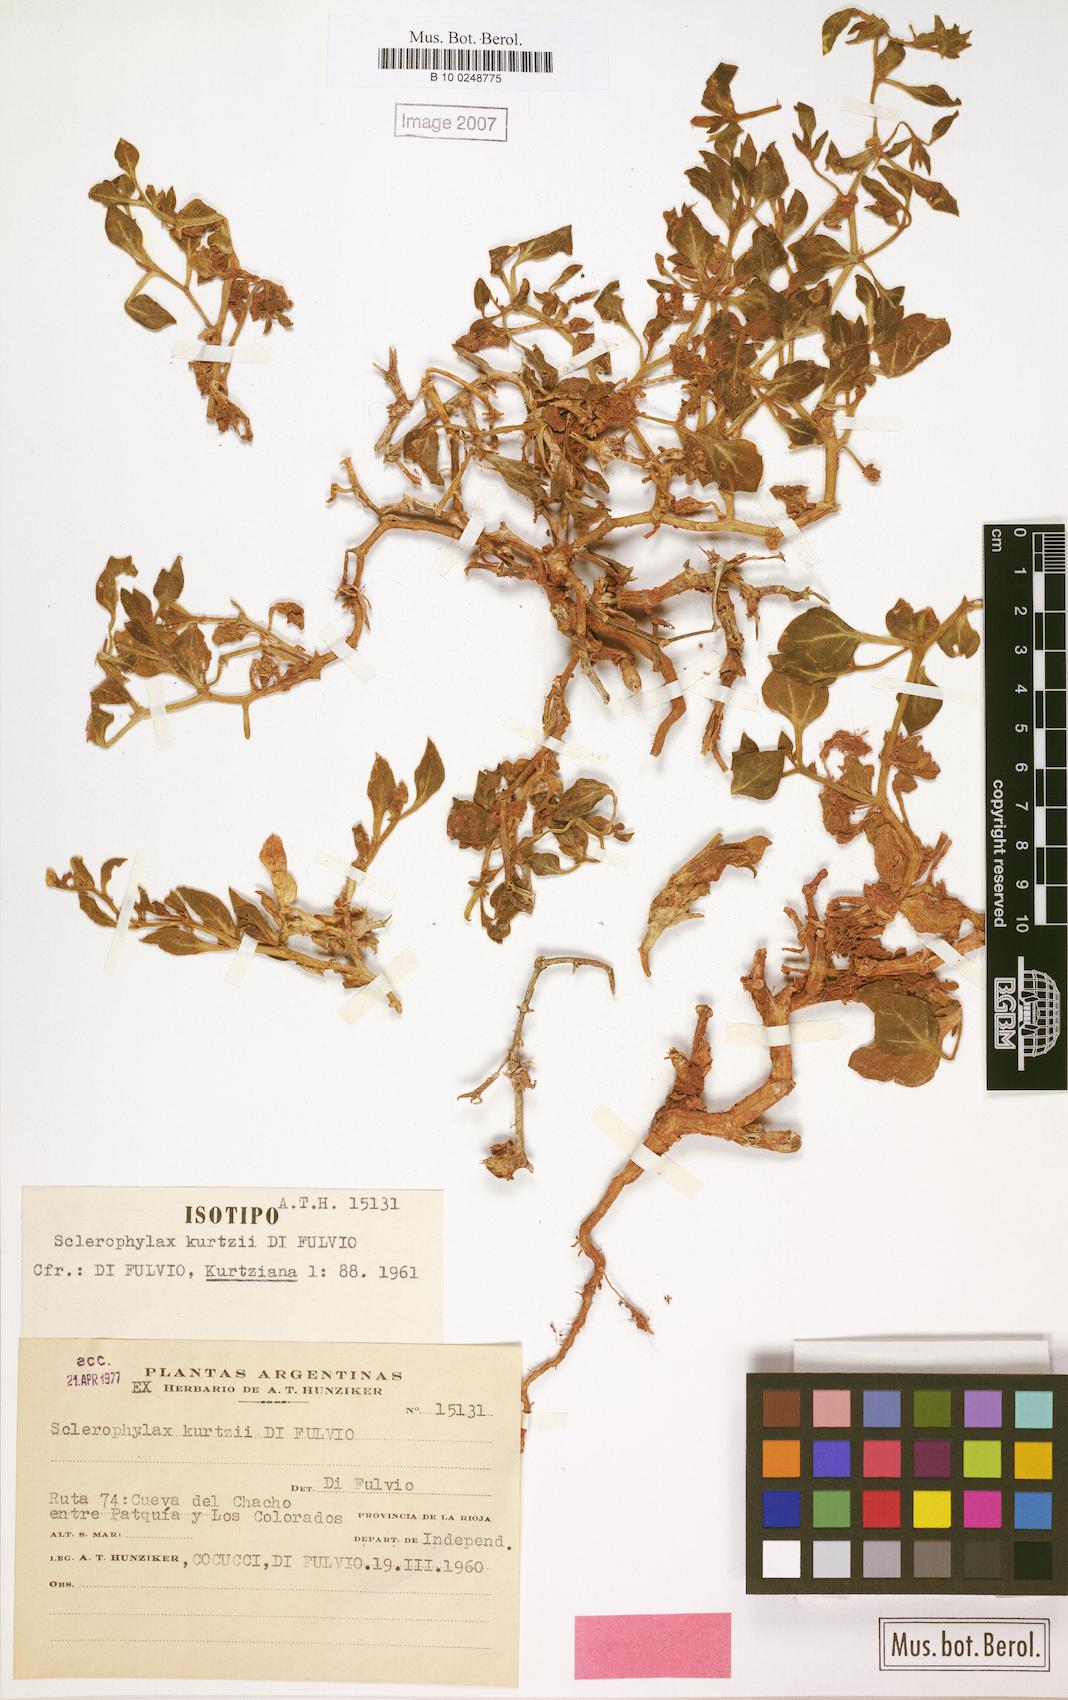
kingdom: Plantae
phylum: Tracheophyta
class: Magnoliopsida
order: Solanales
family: Solanaceae
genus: Sclerophylax
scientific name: Sclerophylax kurtzii
